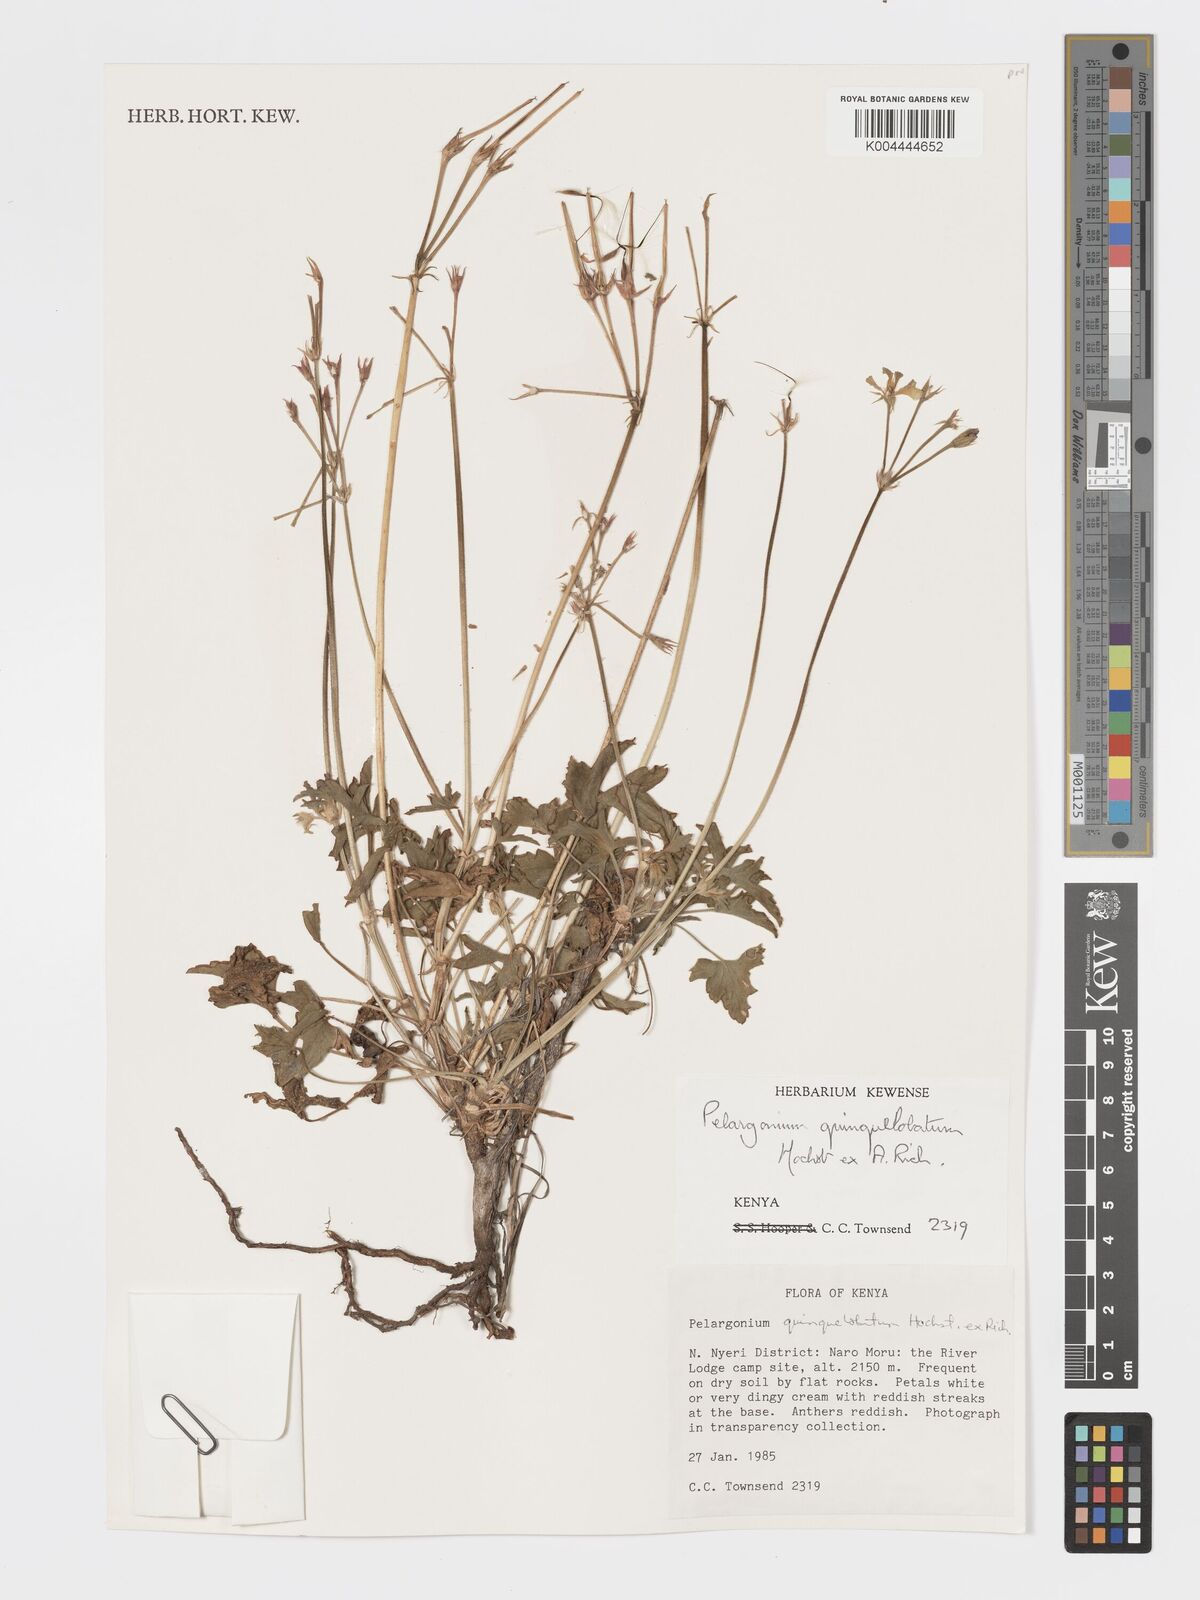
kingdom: Plantae
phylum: Tracheophyta
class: Magnoliopsida
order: Geraniales
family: Geraniaceae
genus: Pelargonium
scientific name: Pelargonium quinquelobatum
